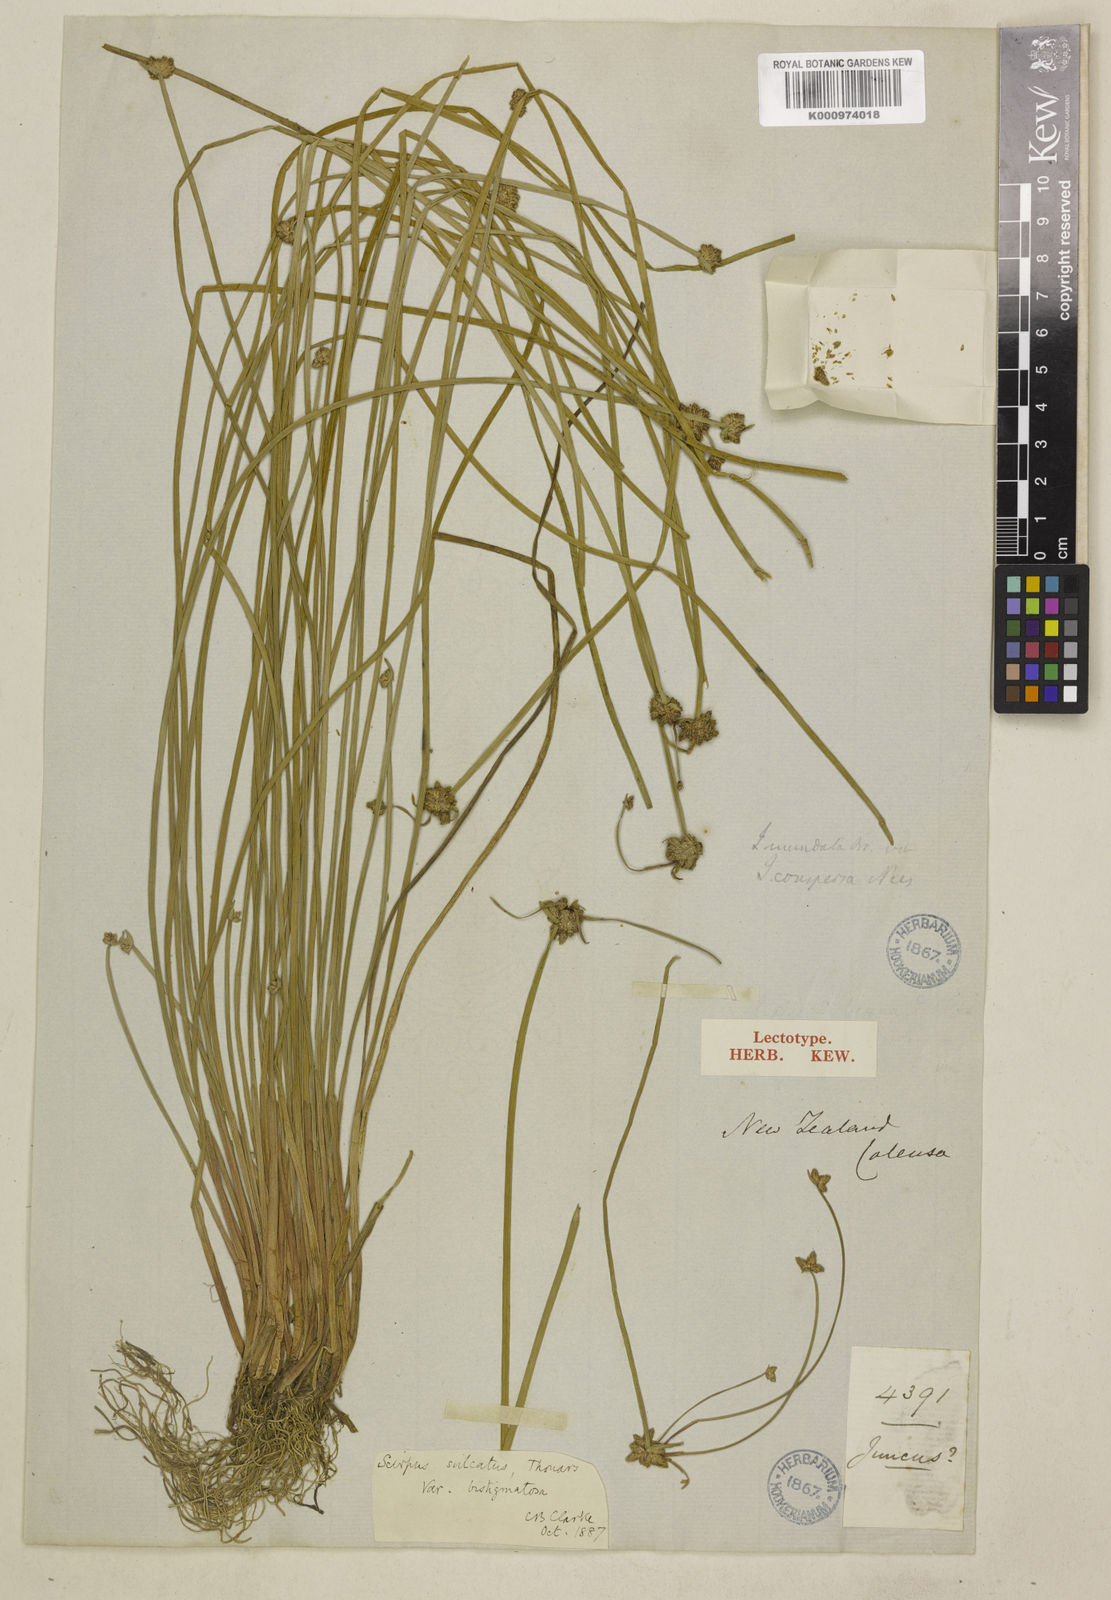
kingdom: Plantae
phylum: Tracheophyta
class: Liliopsida
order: Poales
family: Cyperaceae
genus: Isolepis
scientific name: Isolepis distigmatosa
